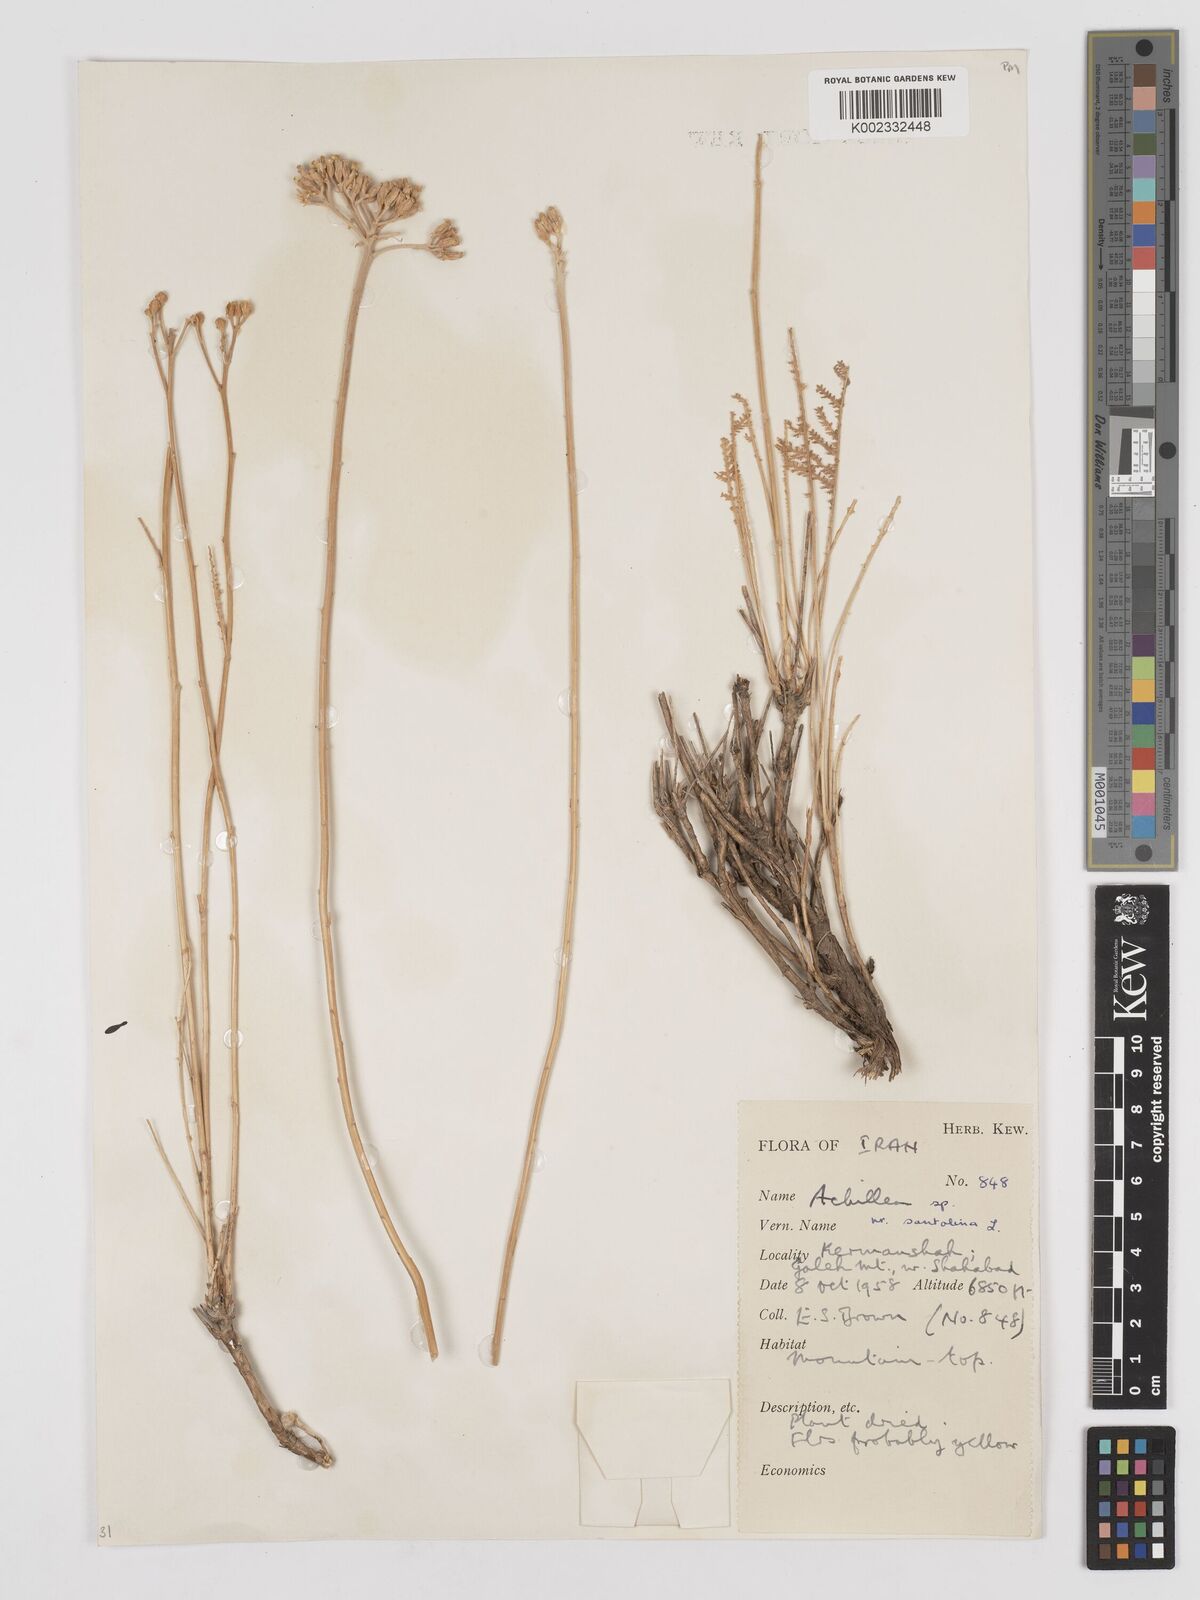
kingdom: Plantae
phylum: Tracheophyta
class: Magnoliopsida
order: Asterales
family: Asteraceae
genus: Achillea
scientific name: Achillea tenuifolia
